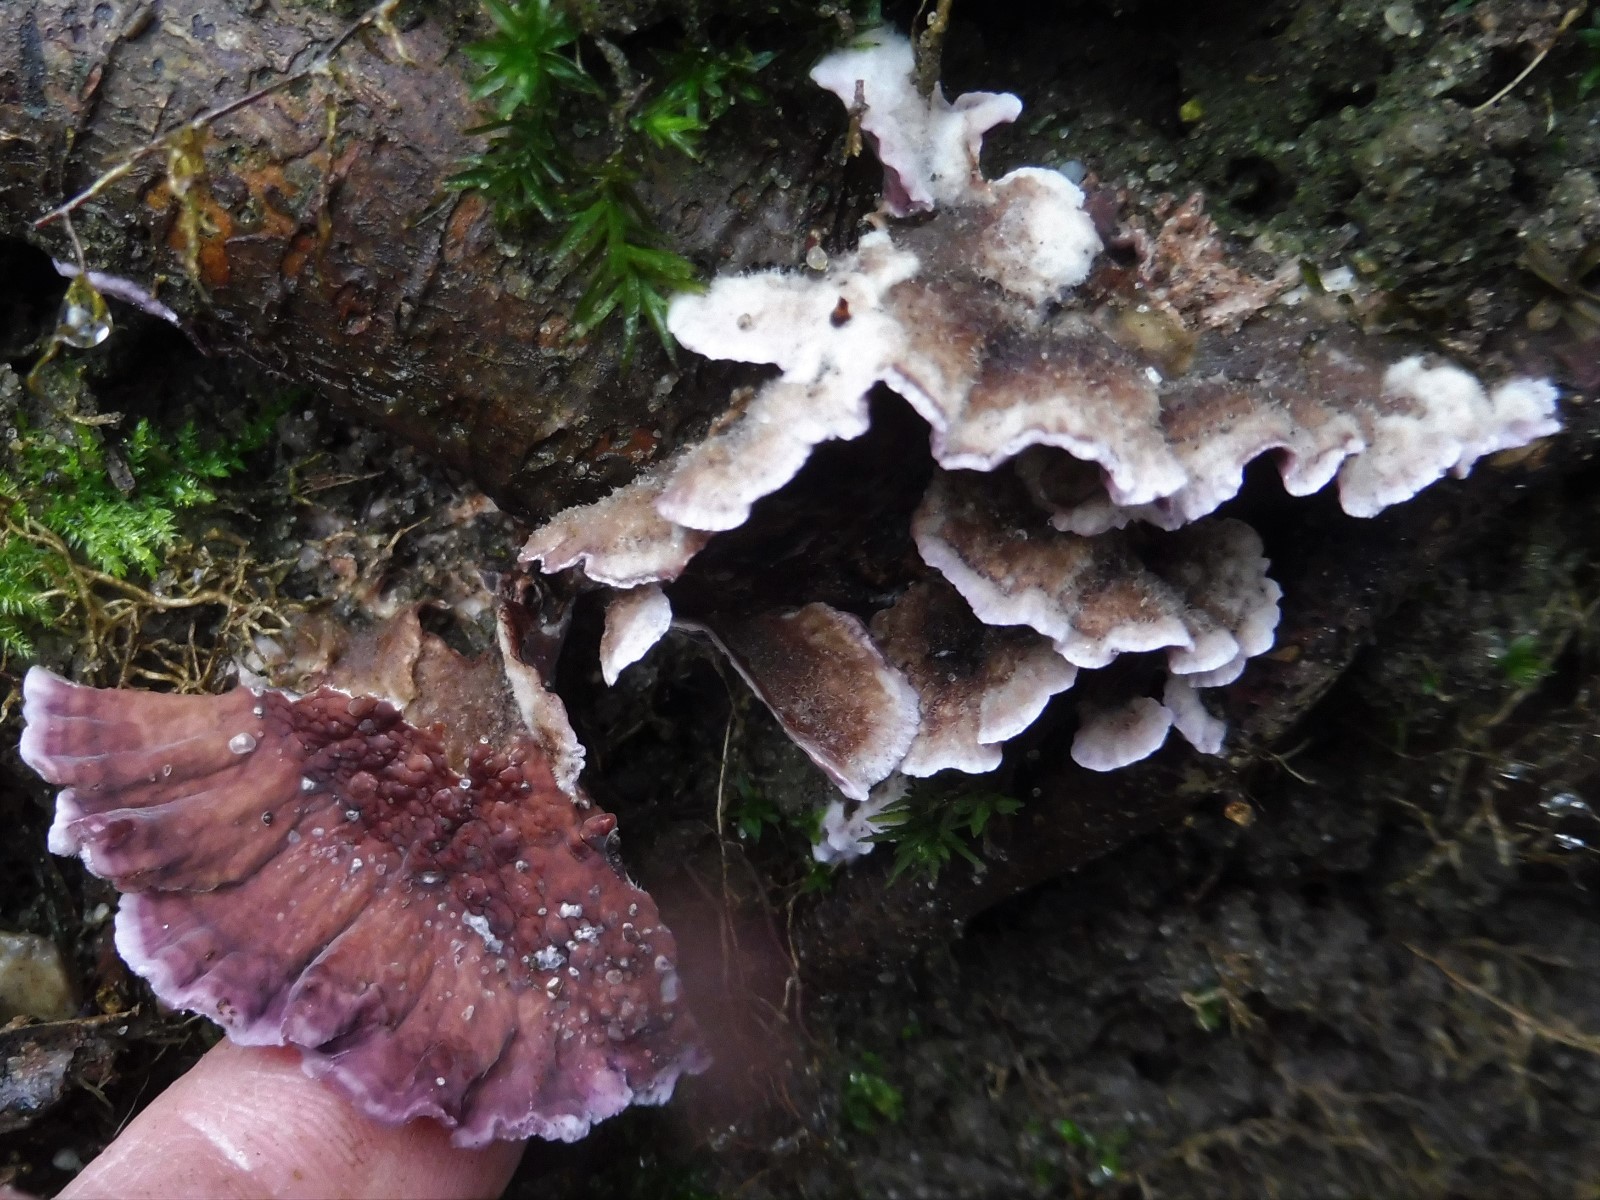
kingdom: Fungi
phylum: Basidiomycota
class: Agaricomycetes
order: Agaricales
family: Cyphellaceae
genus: Chondrostereum
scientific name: Chondrostereum purpureum
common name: purpurlædersvamp
